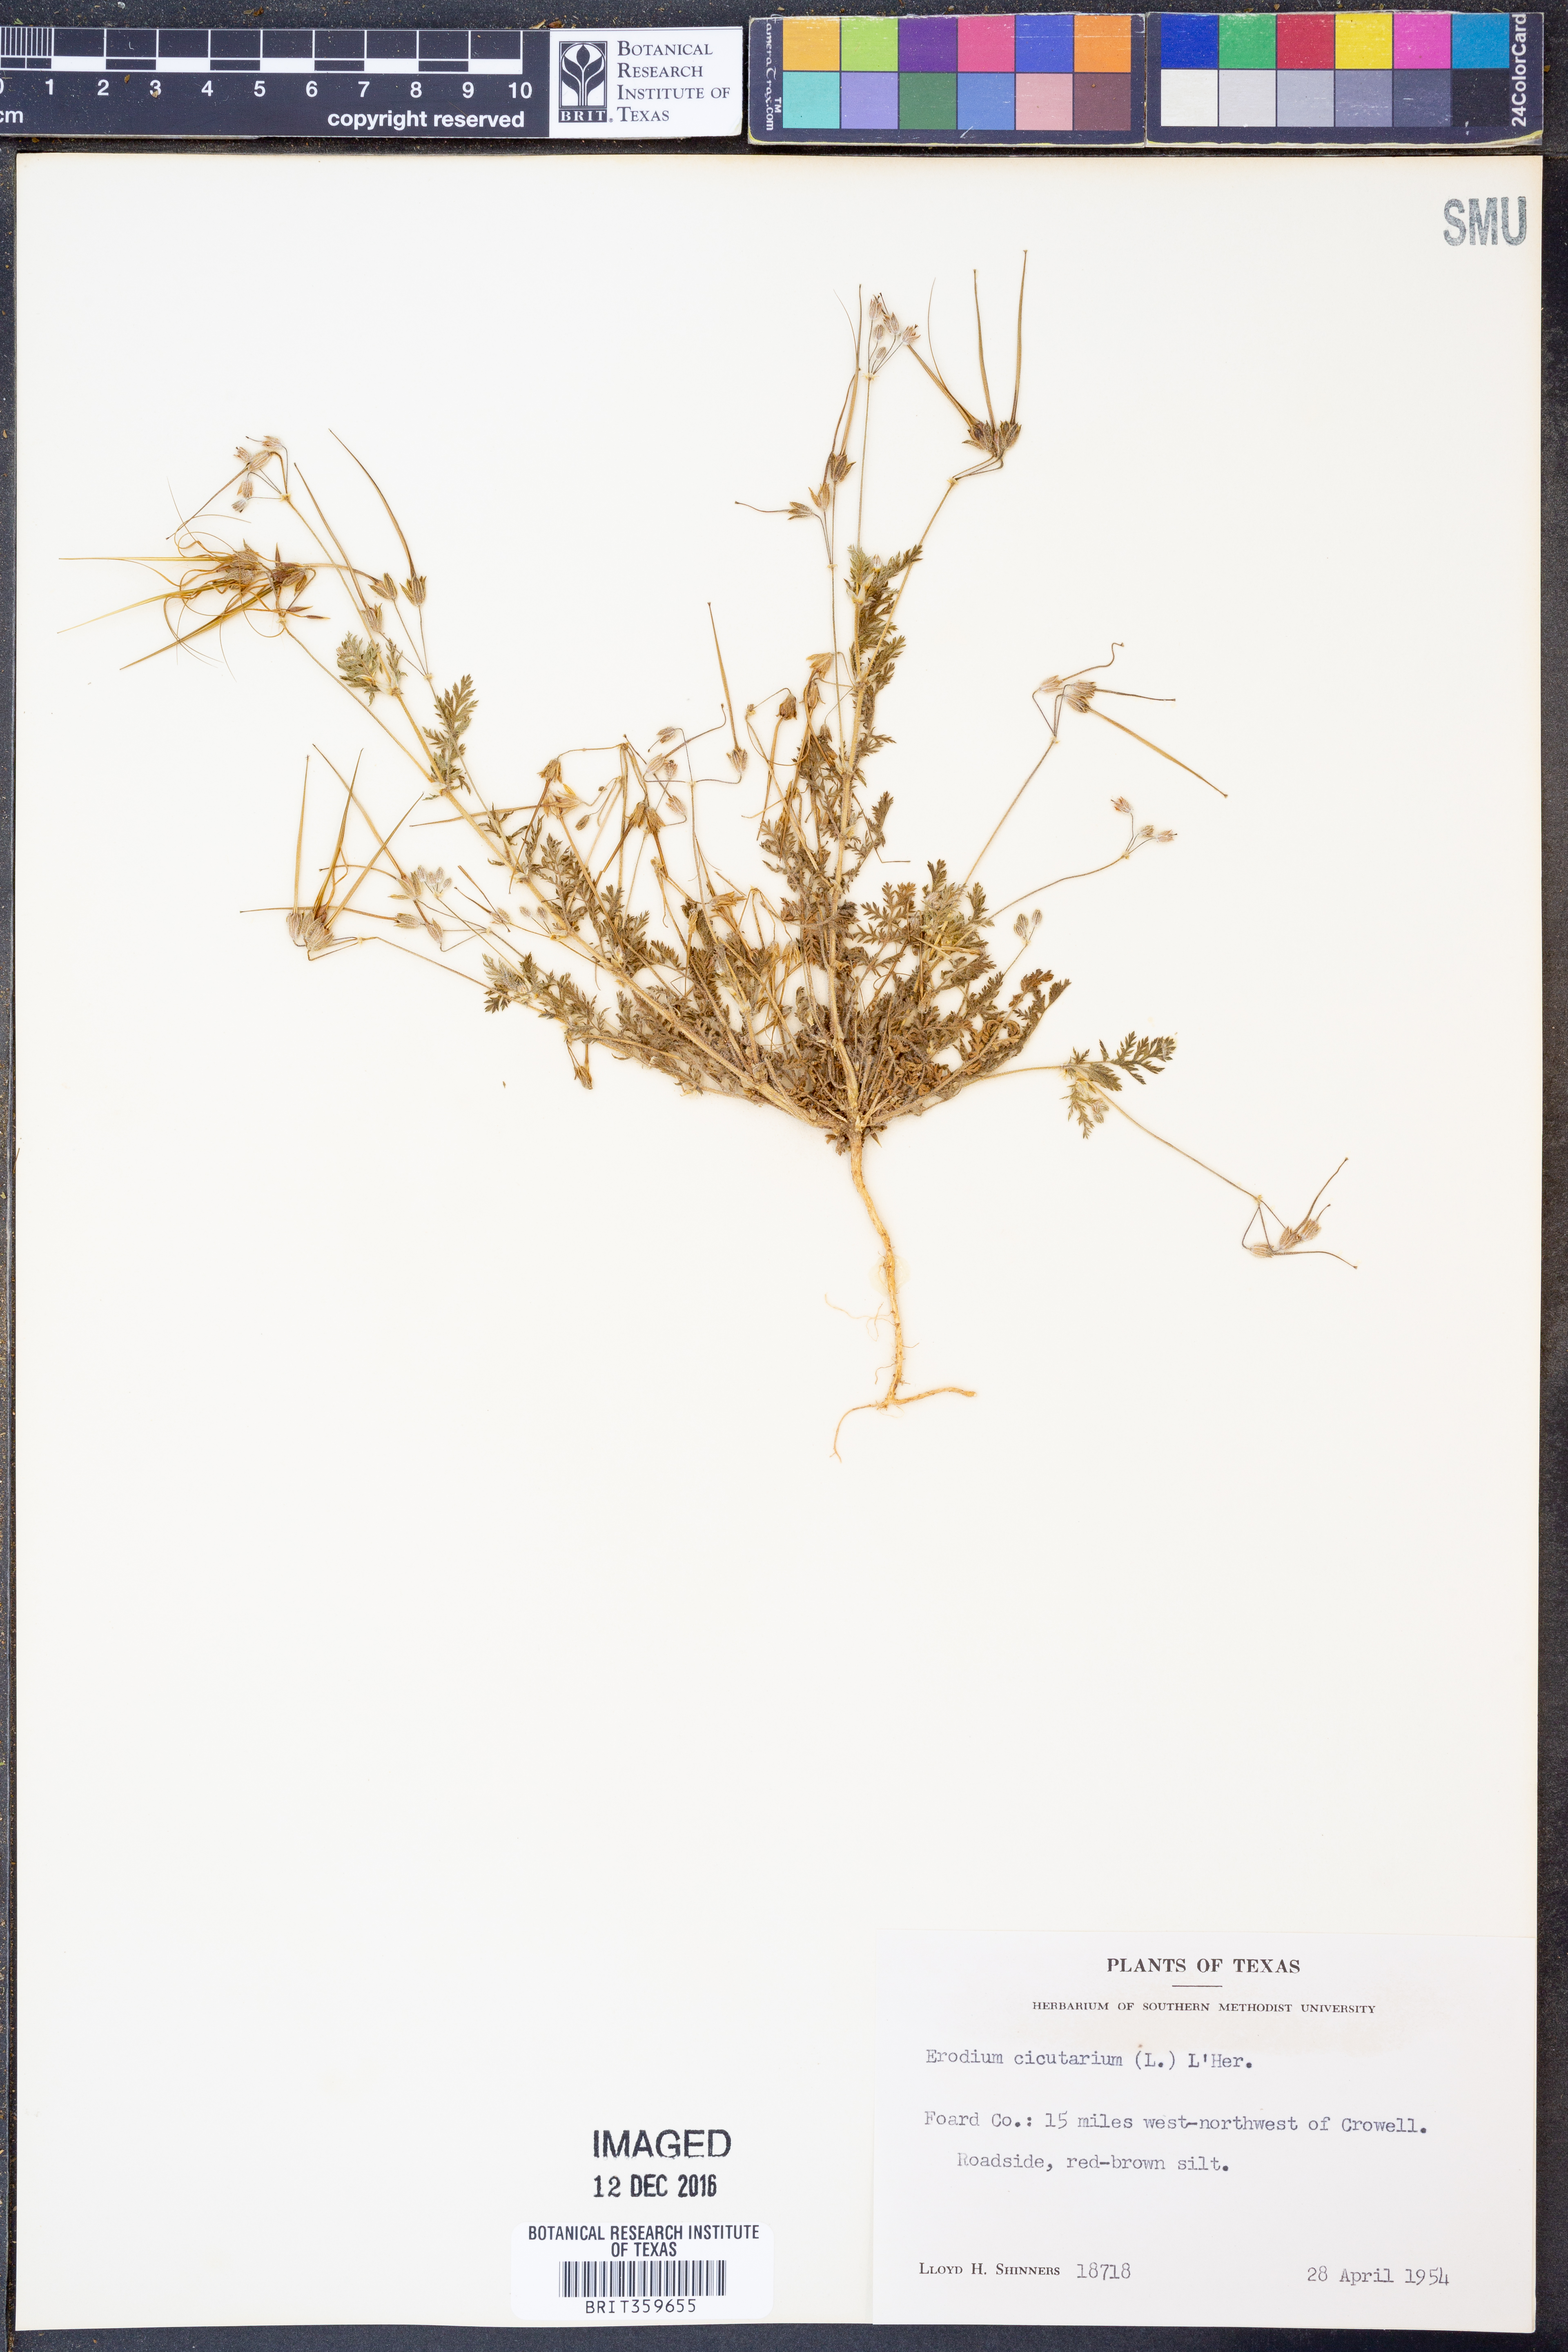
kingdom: Plantae
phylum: Tracheophyta
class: Magnoliopsida
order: Geraniales
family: Geraniaceae
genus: Erodium
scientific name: Erodium cicutarium
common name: Common stork's-bill
